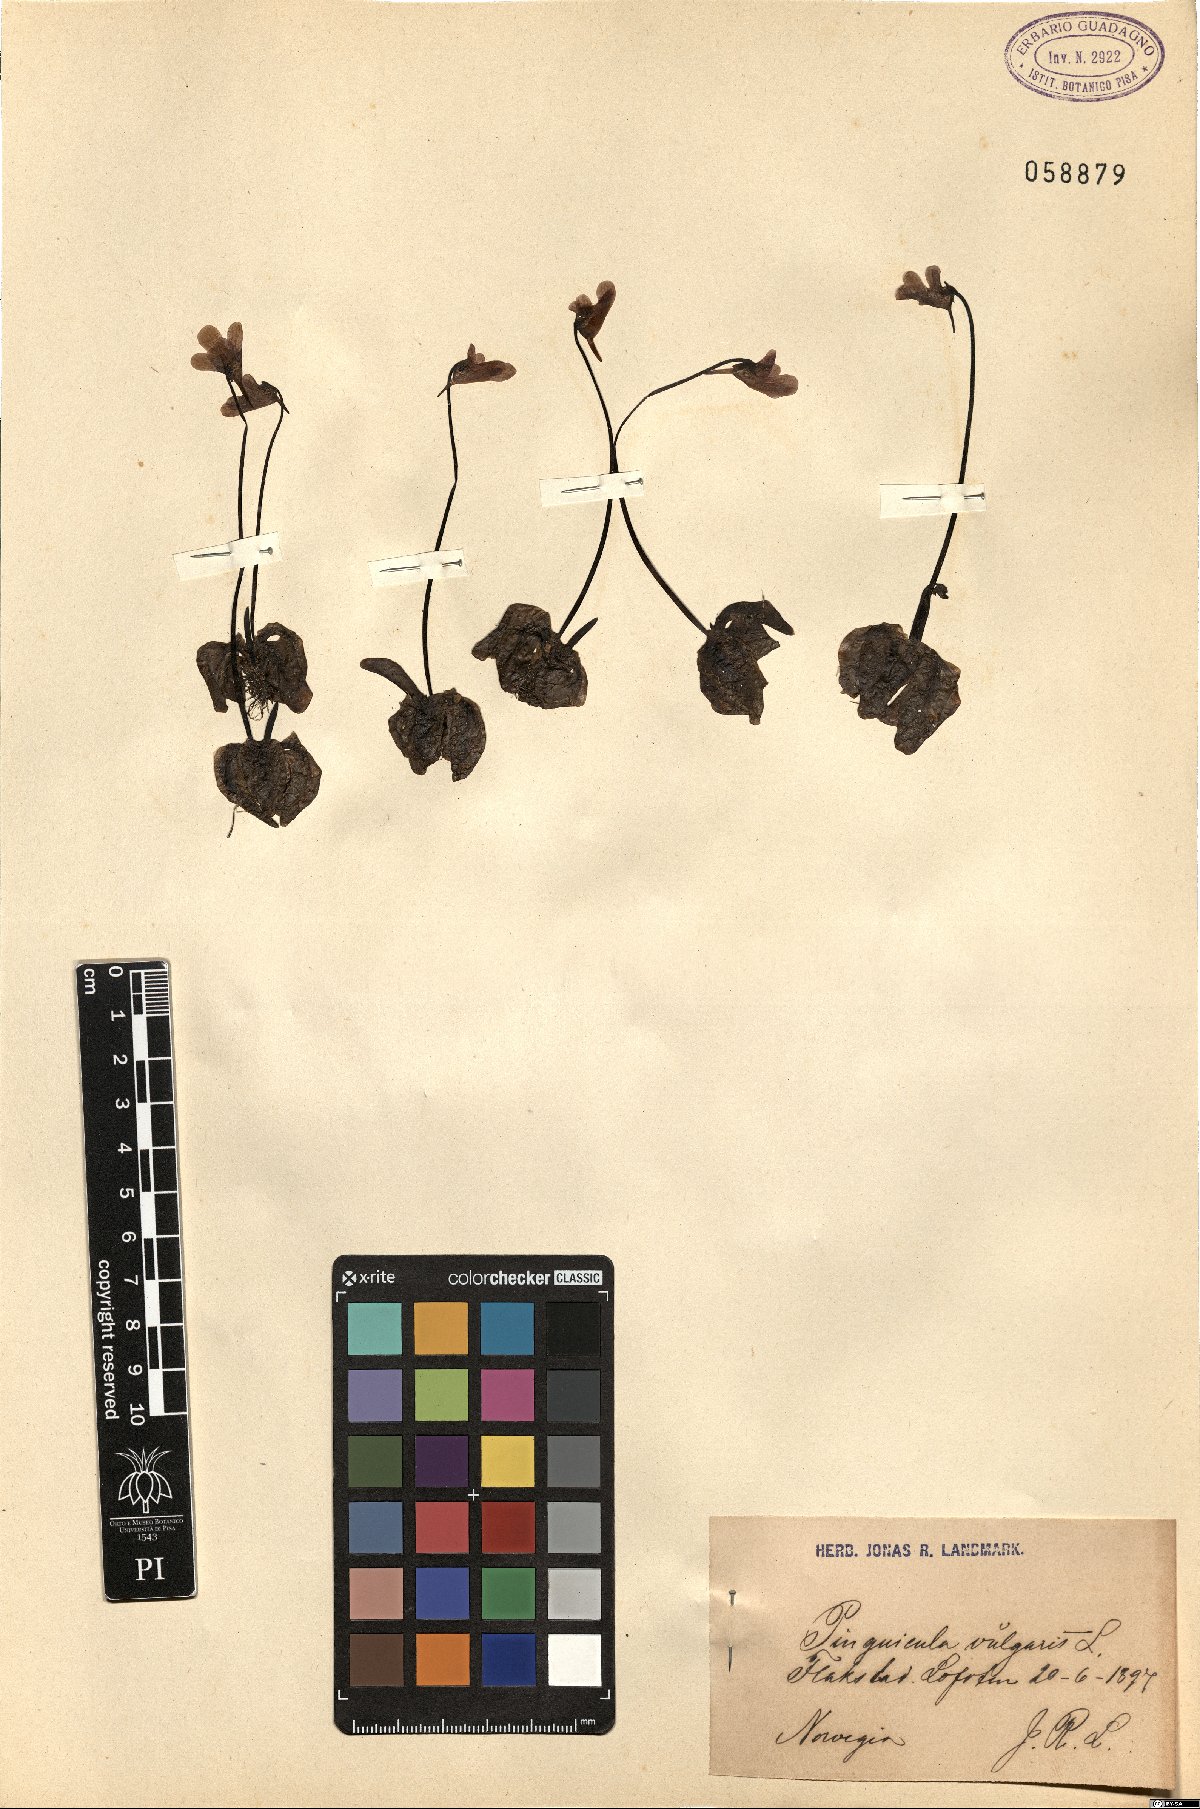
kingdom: Plantae
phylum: Tracheophyta
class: Magnoliopsida
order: Lamiales
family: Lentibulariaceae
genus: Pinguicula
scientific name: Pinguicula vulgaris
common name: Common butterwort
